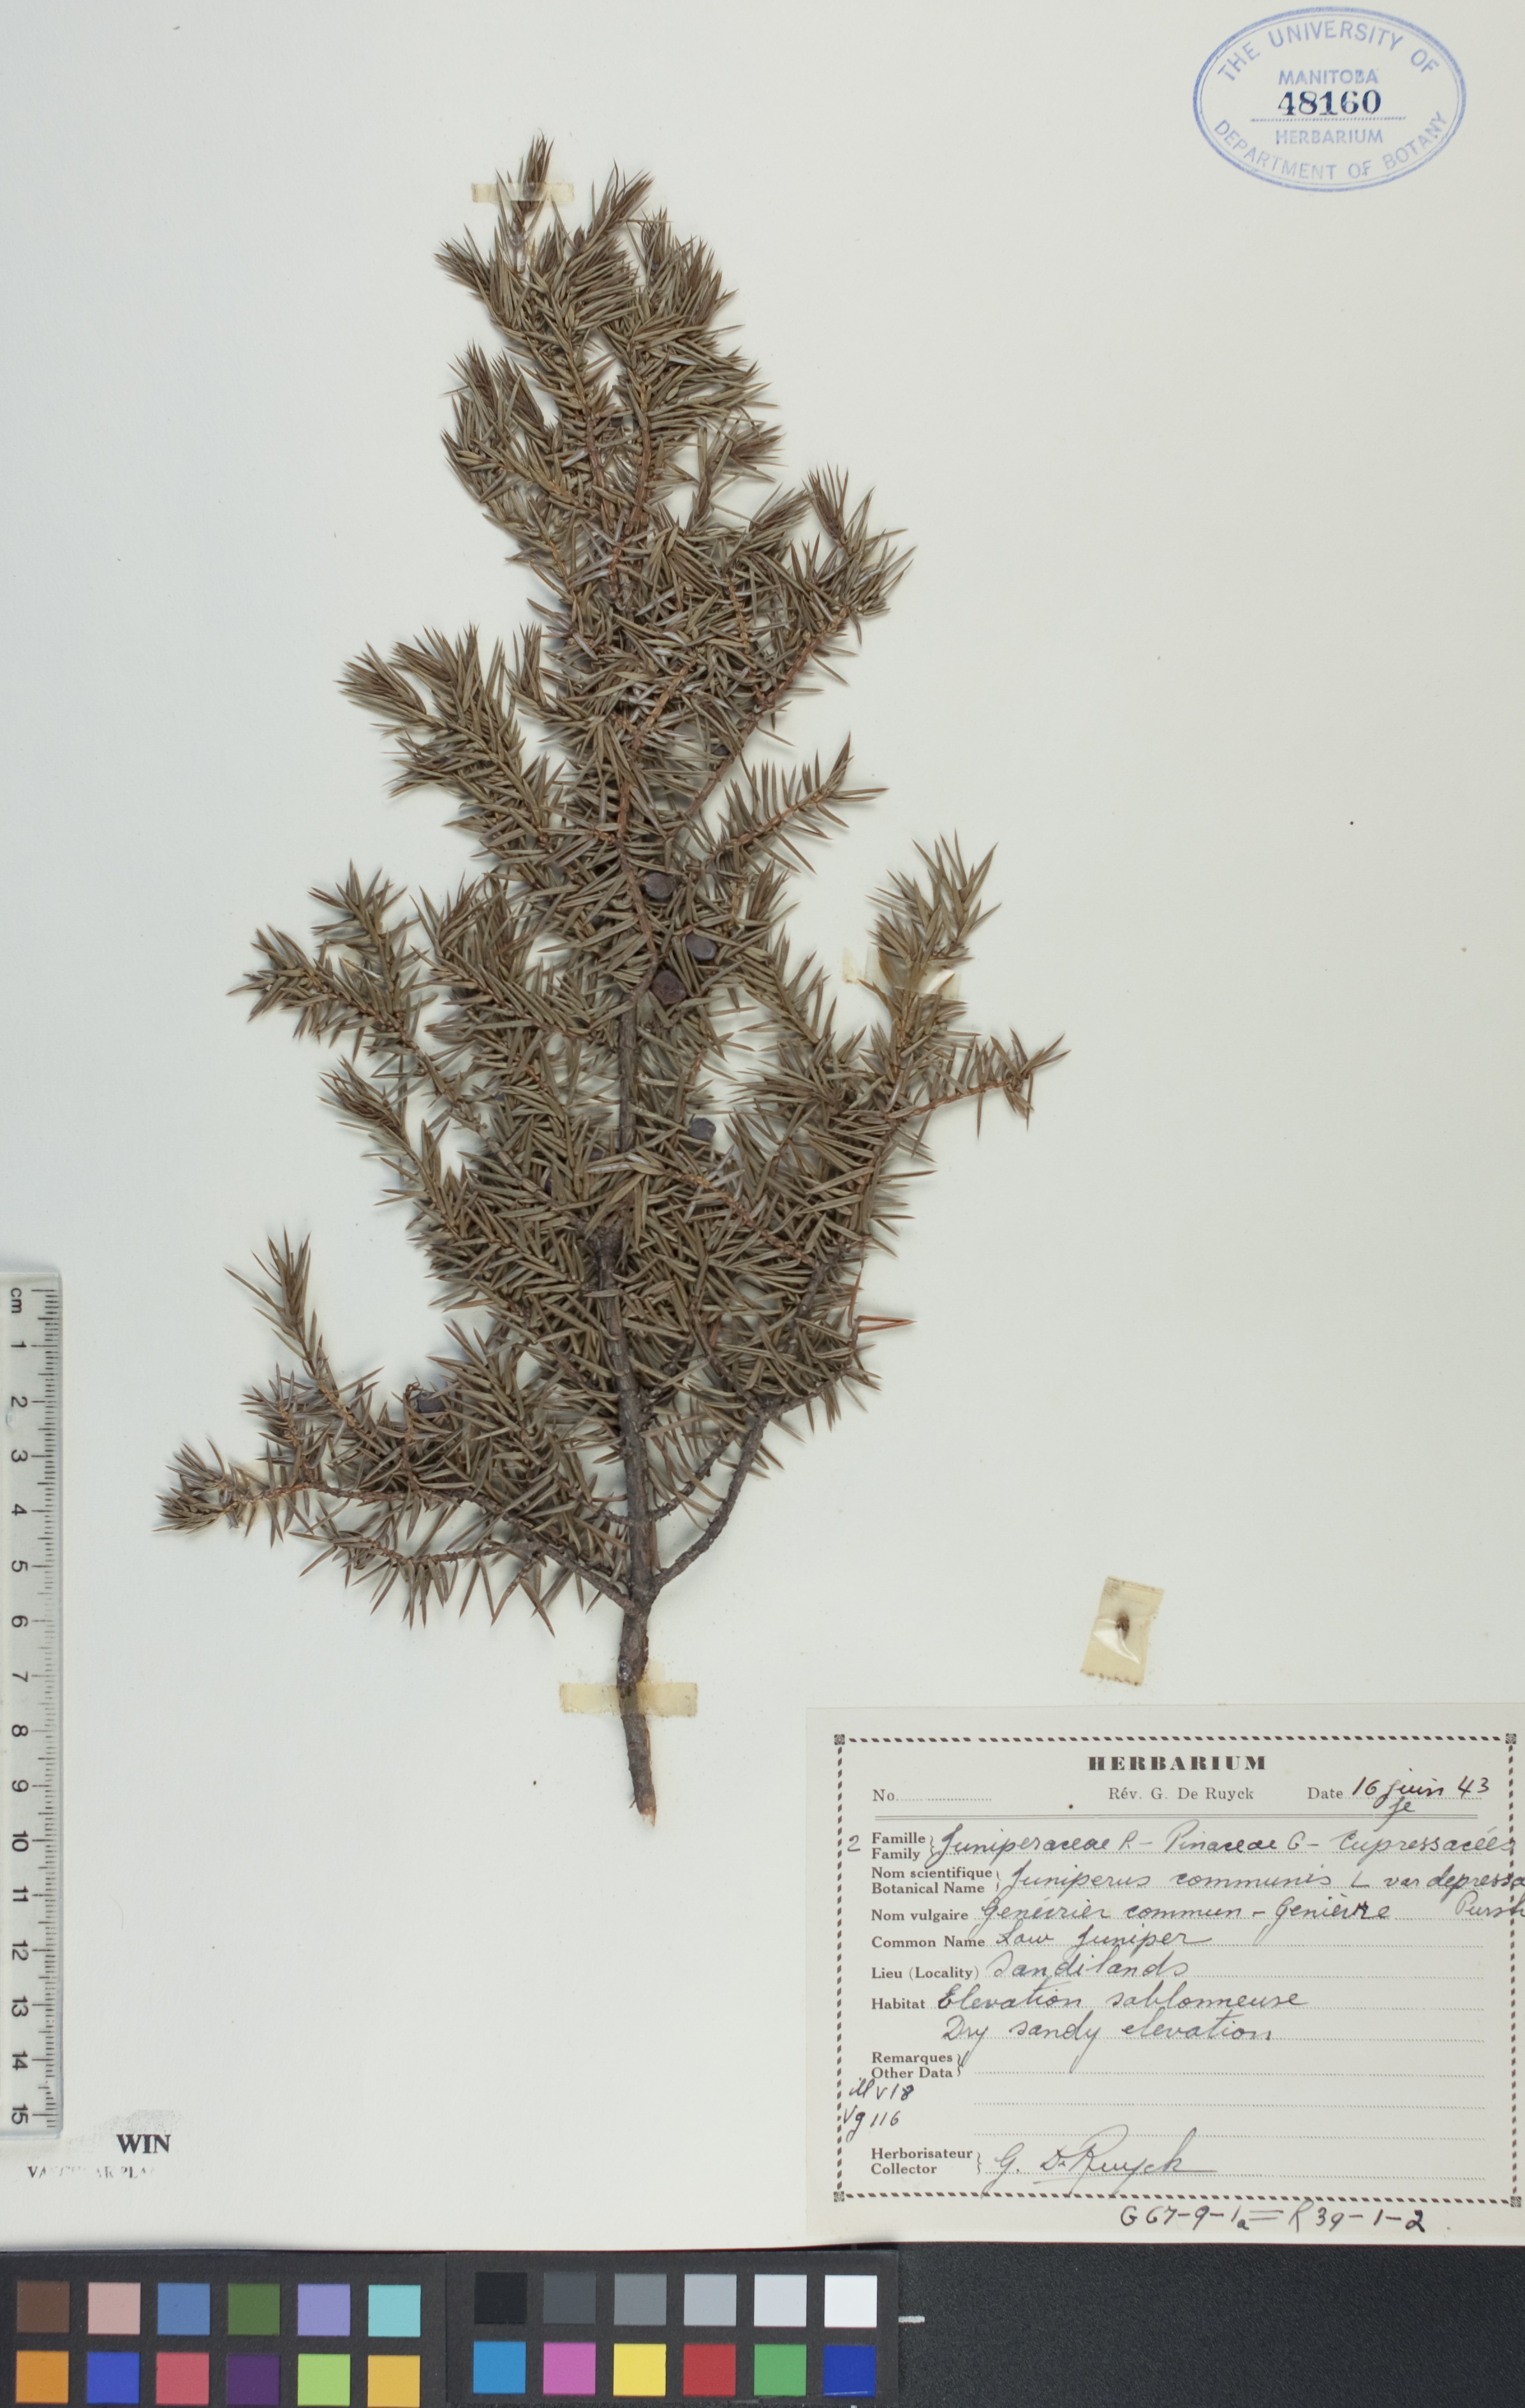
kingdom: Plantae
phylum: Tracheophyta
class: Pinopsida
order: Pinales
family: Cupressaceae
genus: Juniperus
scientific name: Juniperus communis
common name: Common juniper
